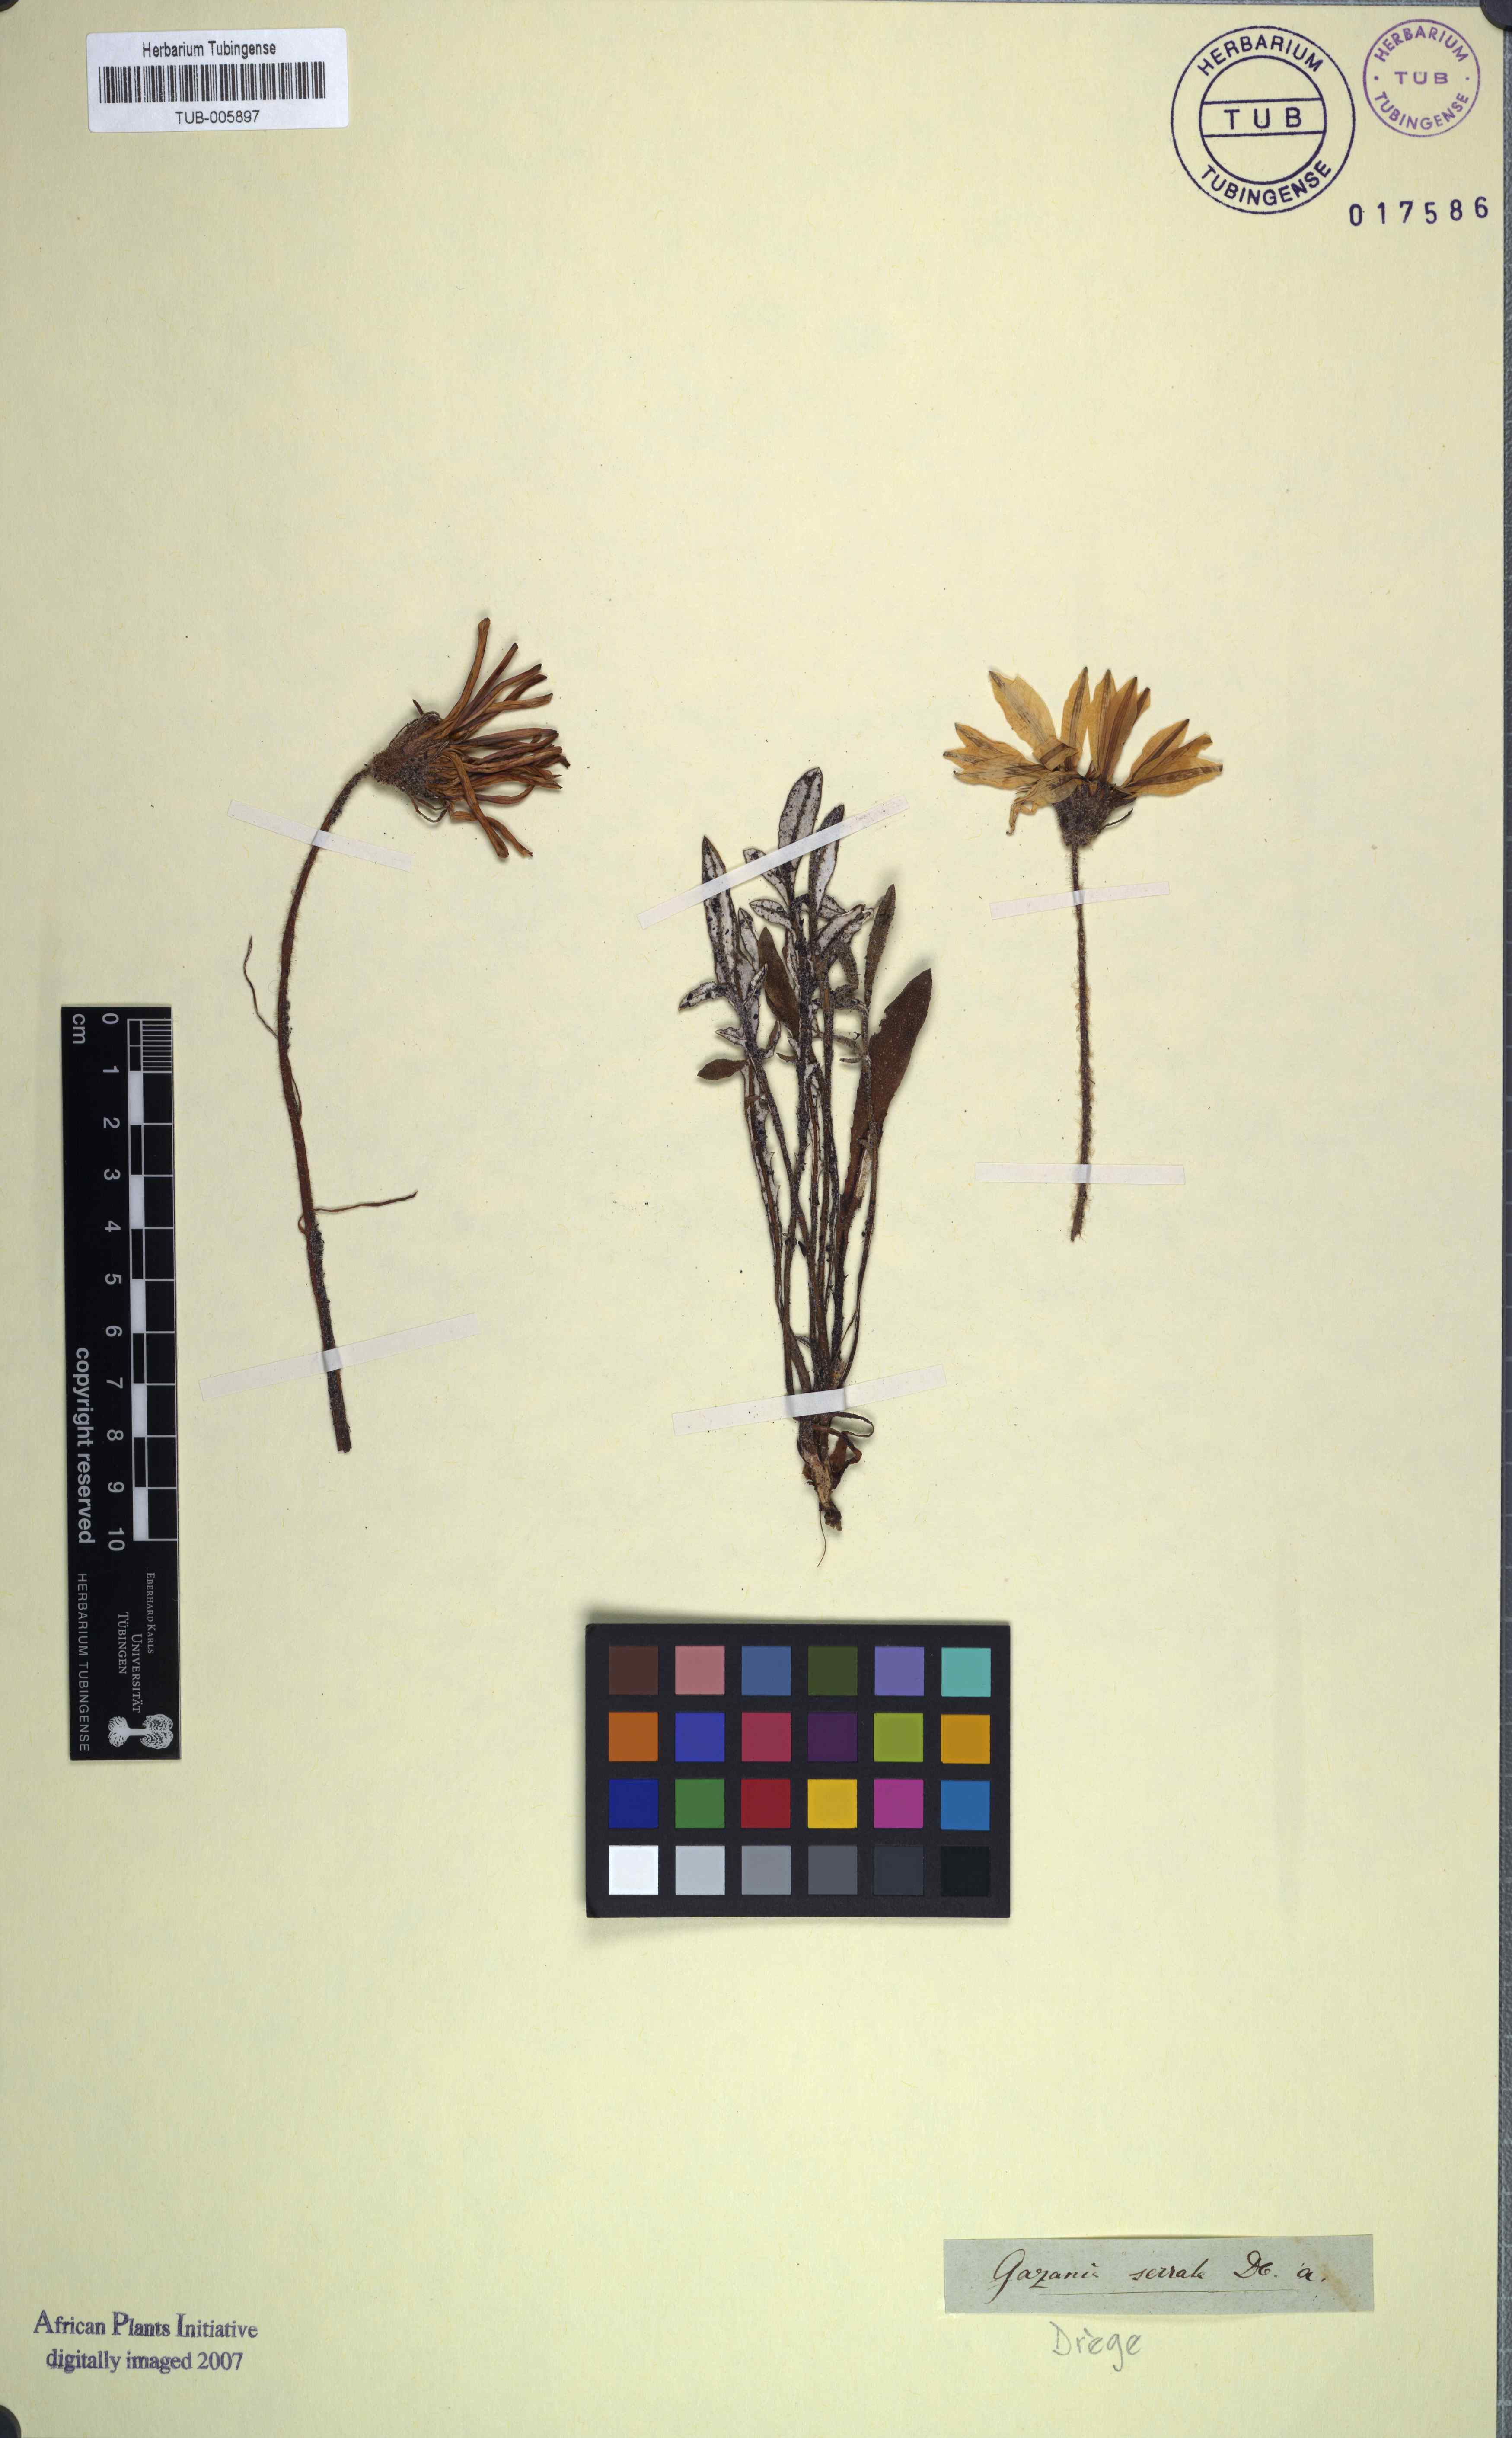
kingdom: Plantae
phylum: Tracheophyta
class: Magnoliopsida
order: Asterales
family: Asteraceae
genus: Gazania
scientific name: Gazania pectinata
